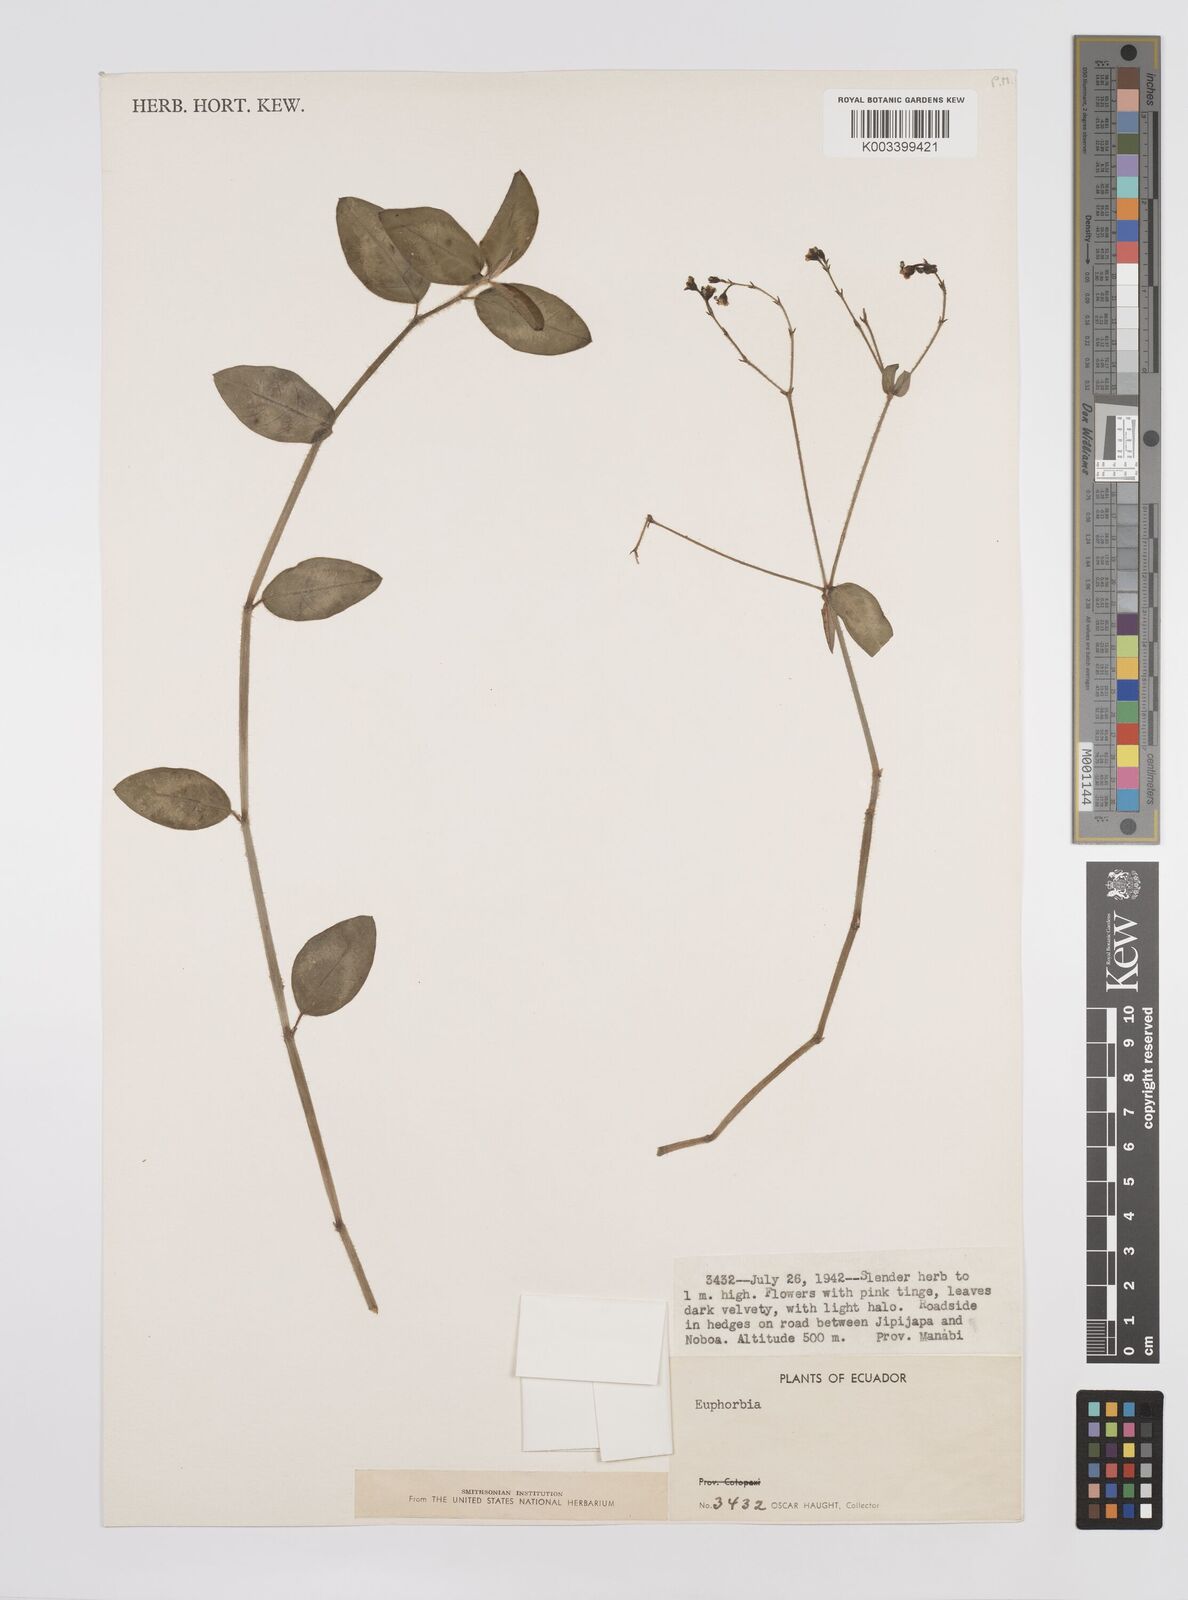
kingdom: Plantae
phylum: Tracheophyta
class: Magnoliopsida
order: Malpighiales
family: Euphorbiaceae
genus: Euphorbia
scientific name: Euphorbia
